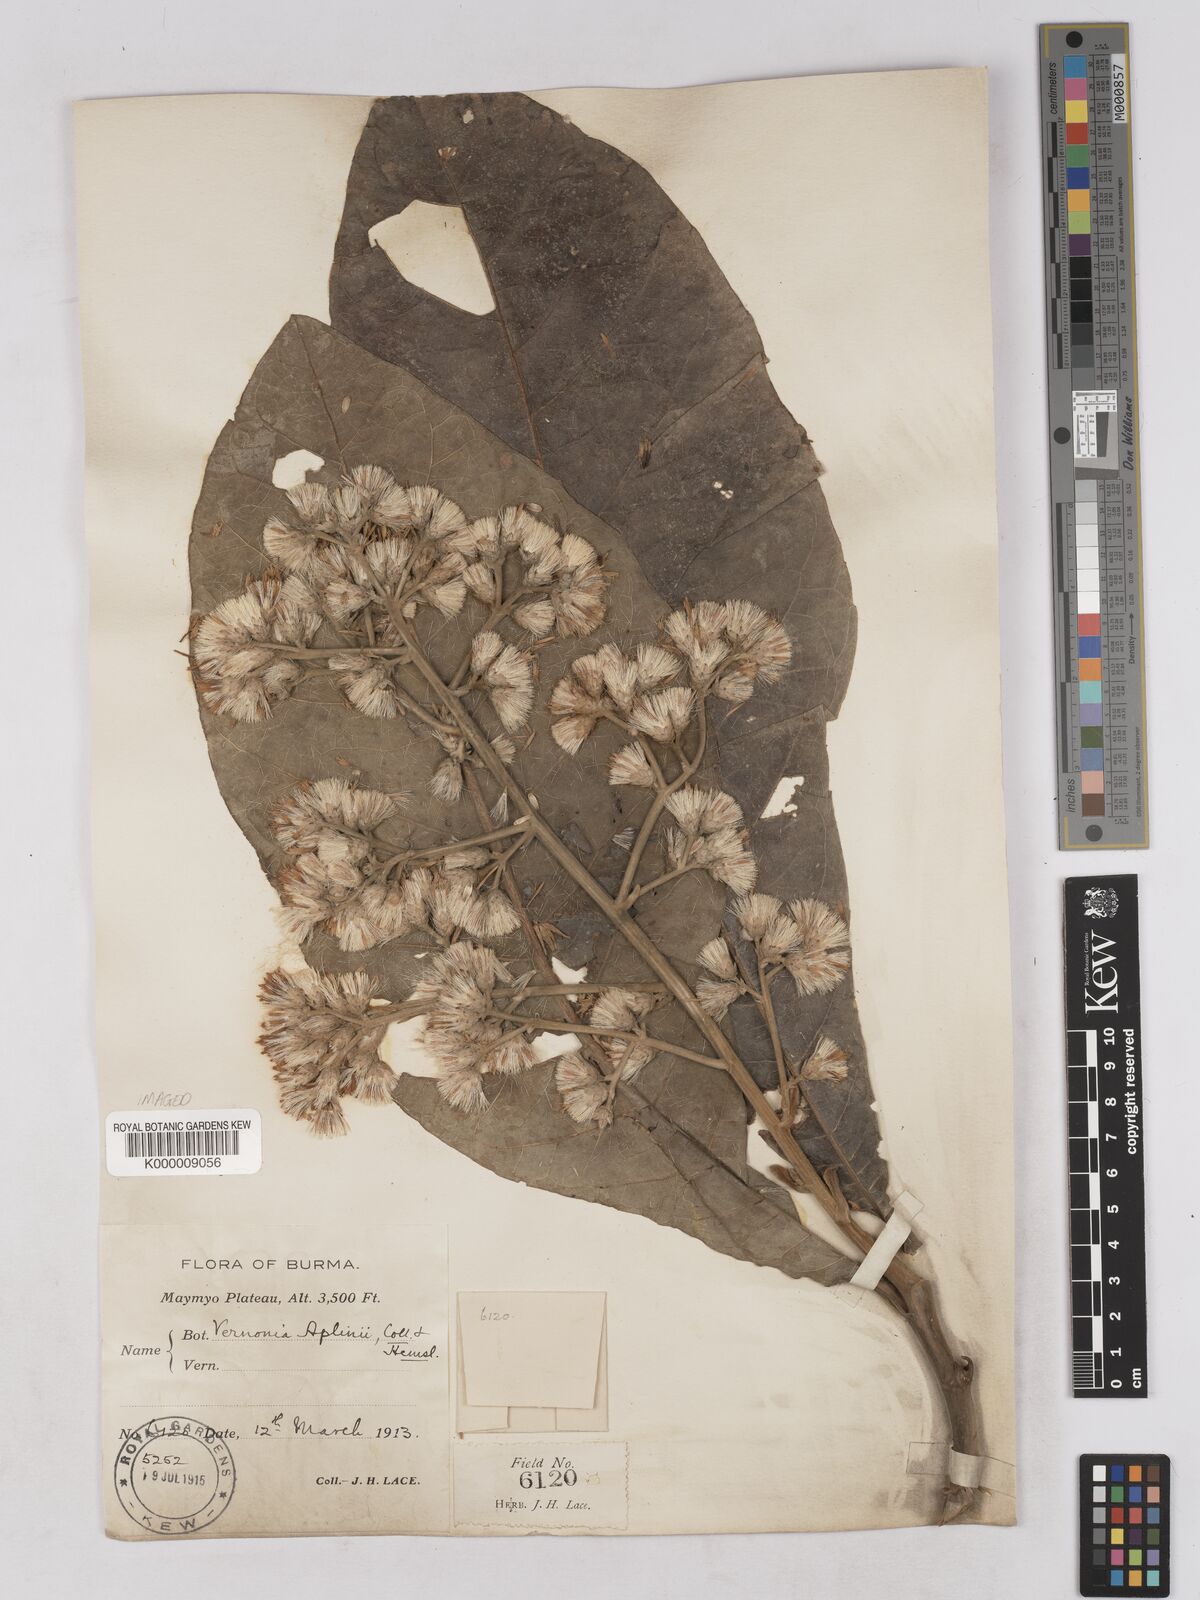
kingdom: Plantae
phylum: Tracheophyta
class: Magnoliopsida
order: Asterales
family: Asteraceae
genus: Monosis
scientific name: Monosis aplinii
